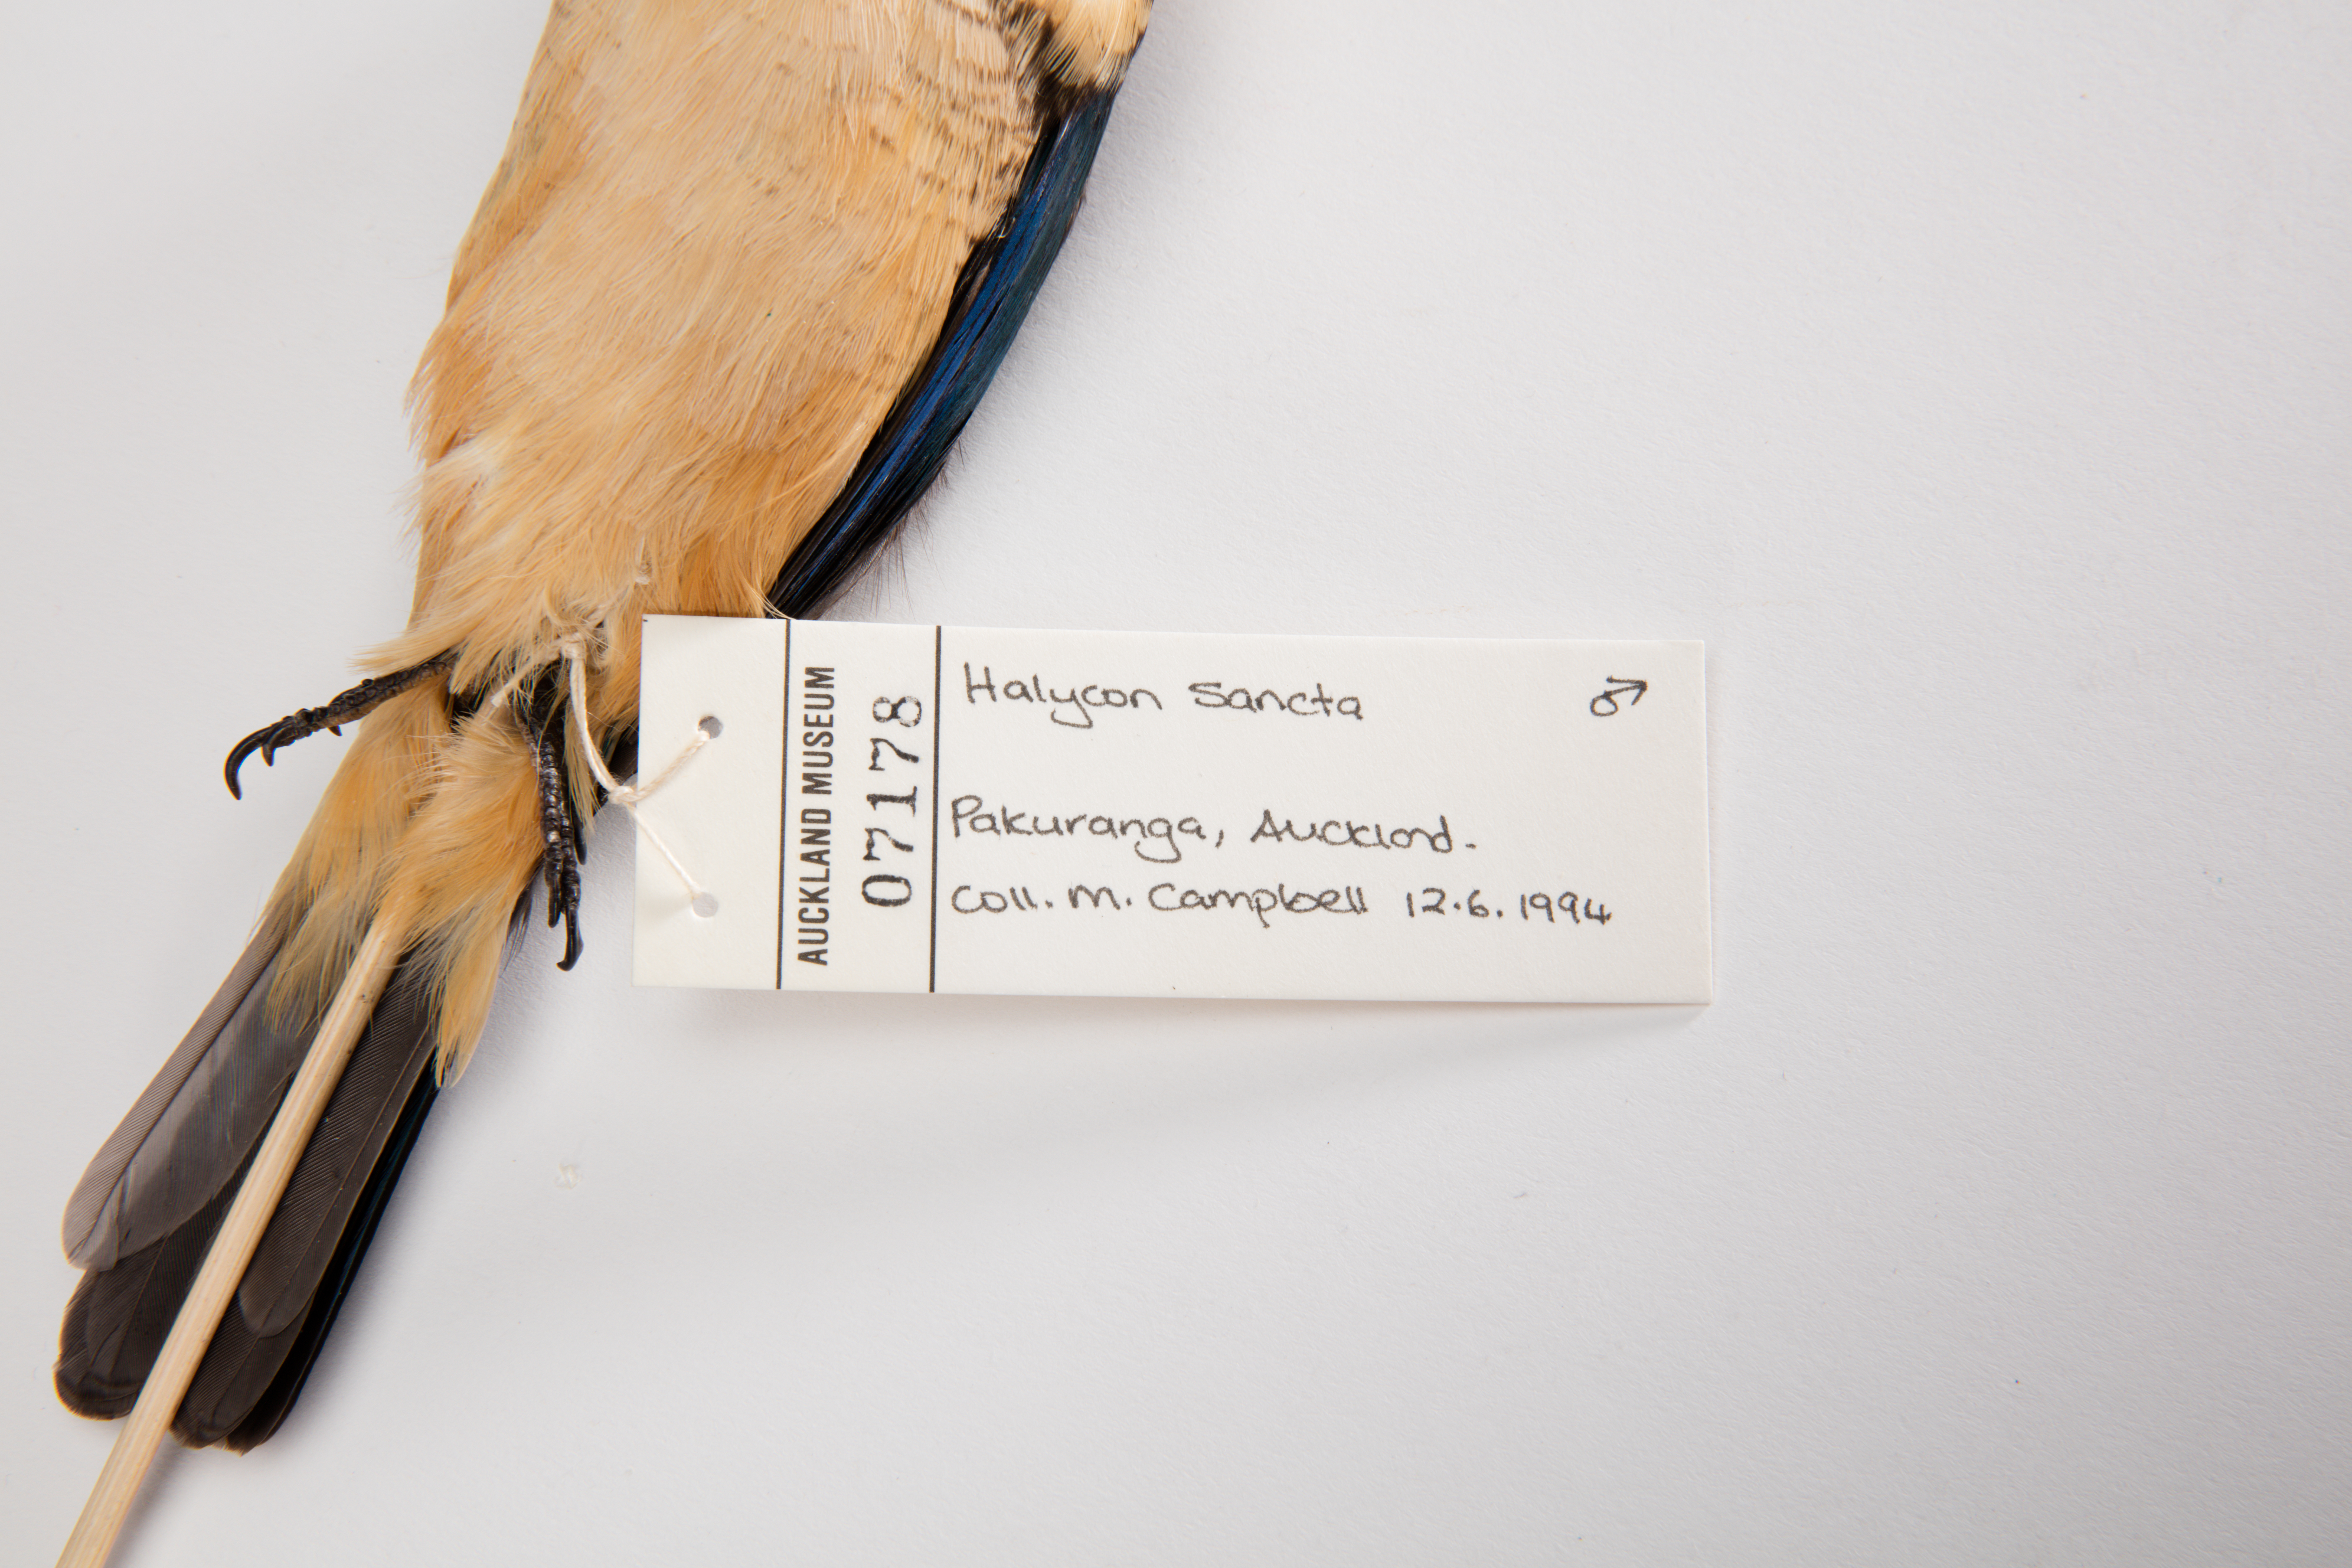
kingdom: Animalia
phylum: Chordata
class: Aves
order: Coraciiformes
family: Alcedinidae
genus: Todiramphus
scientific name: Todiramphus sanctus
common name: Sacred kingfisher
